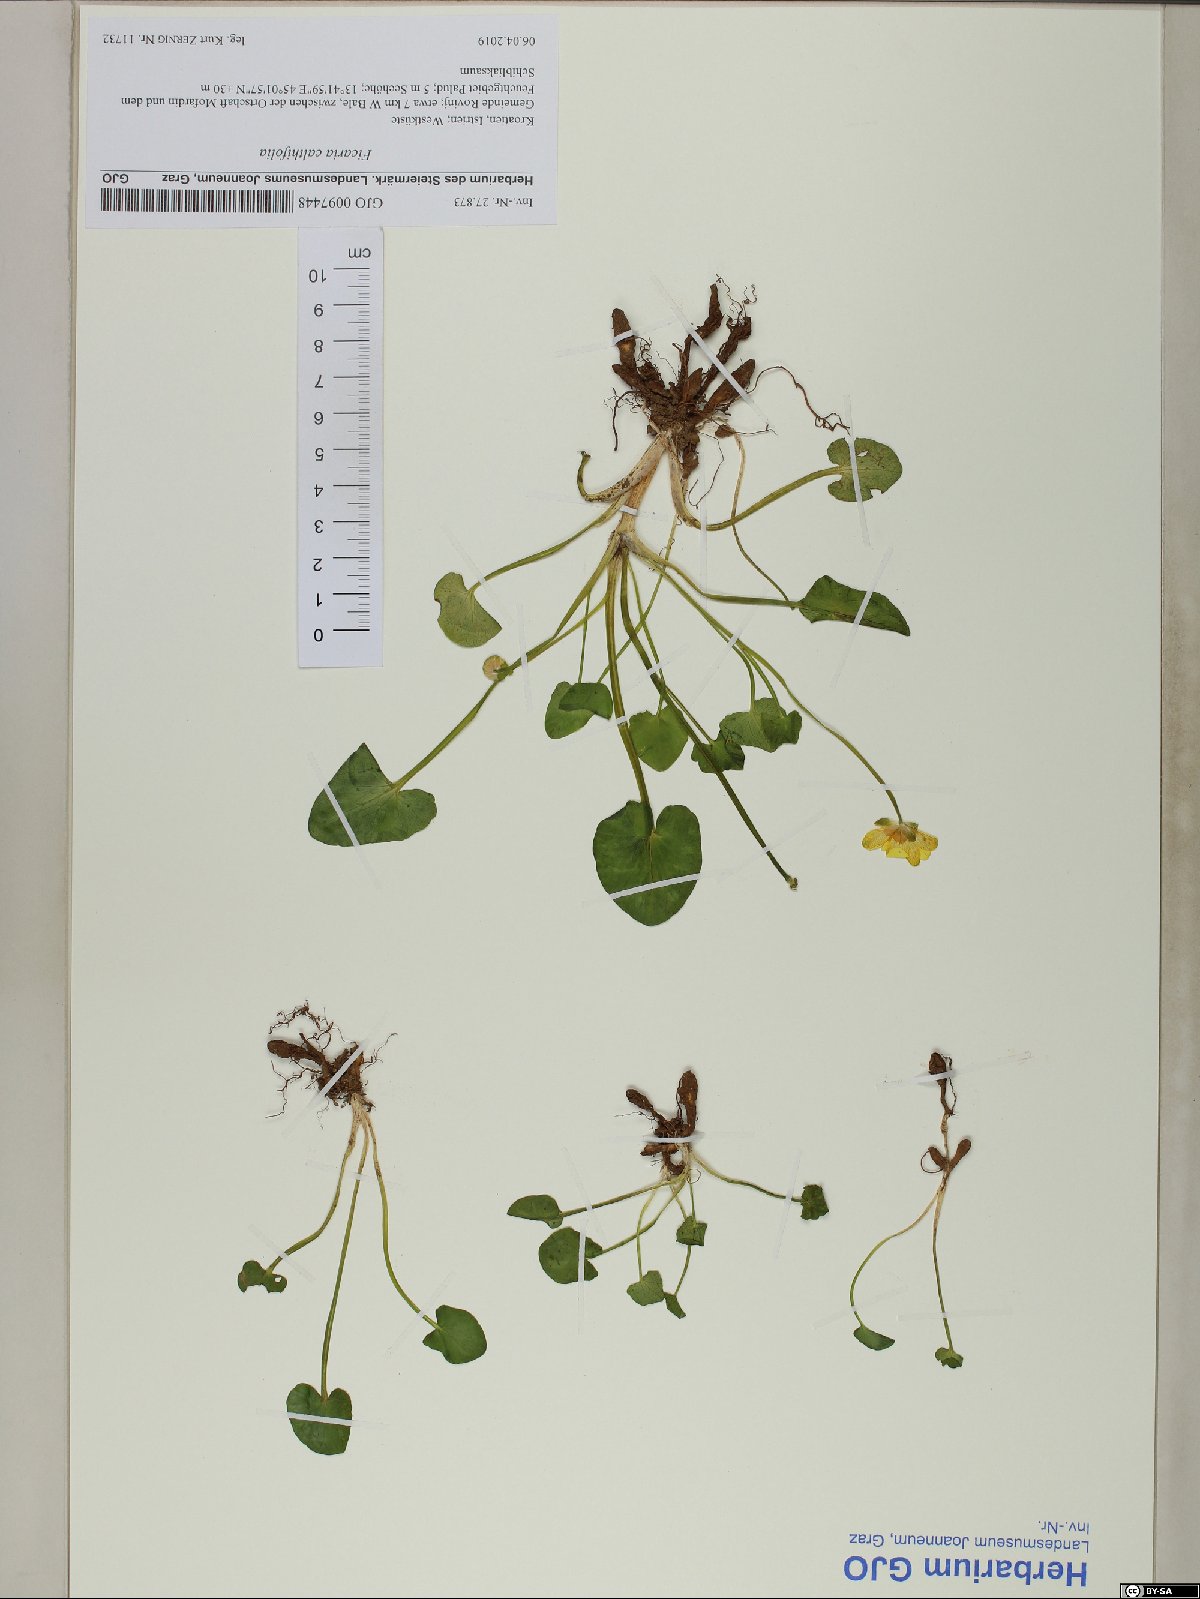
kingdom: Plantae
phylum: Tracheophyta
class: Magnoliopsida
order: Ranunculales
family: Ranunculaceae
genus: Ficaria
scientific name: Ficaria calthifolia
